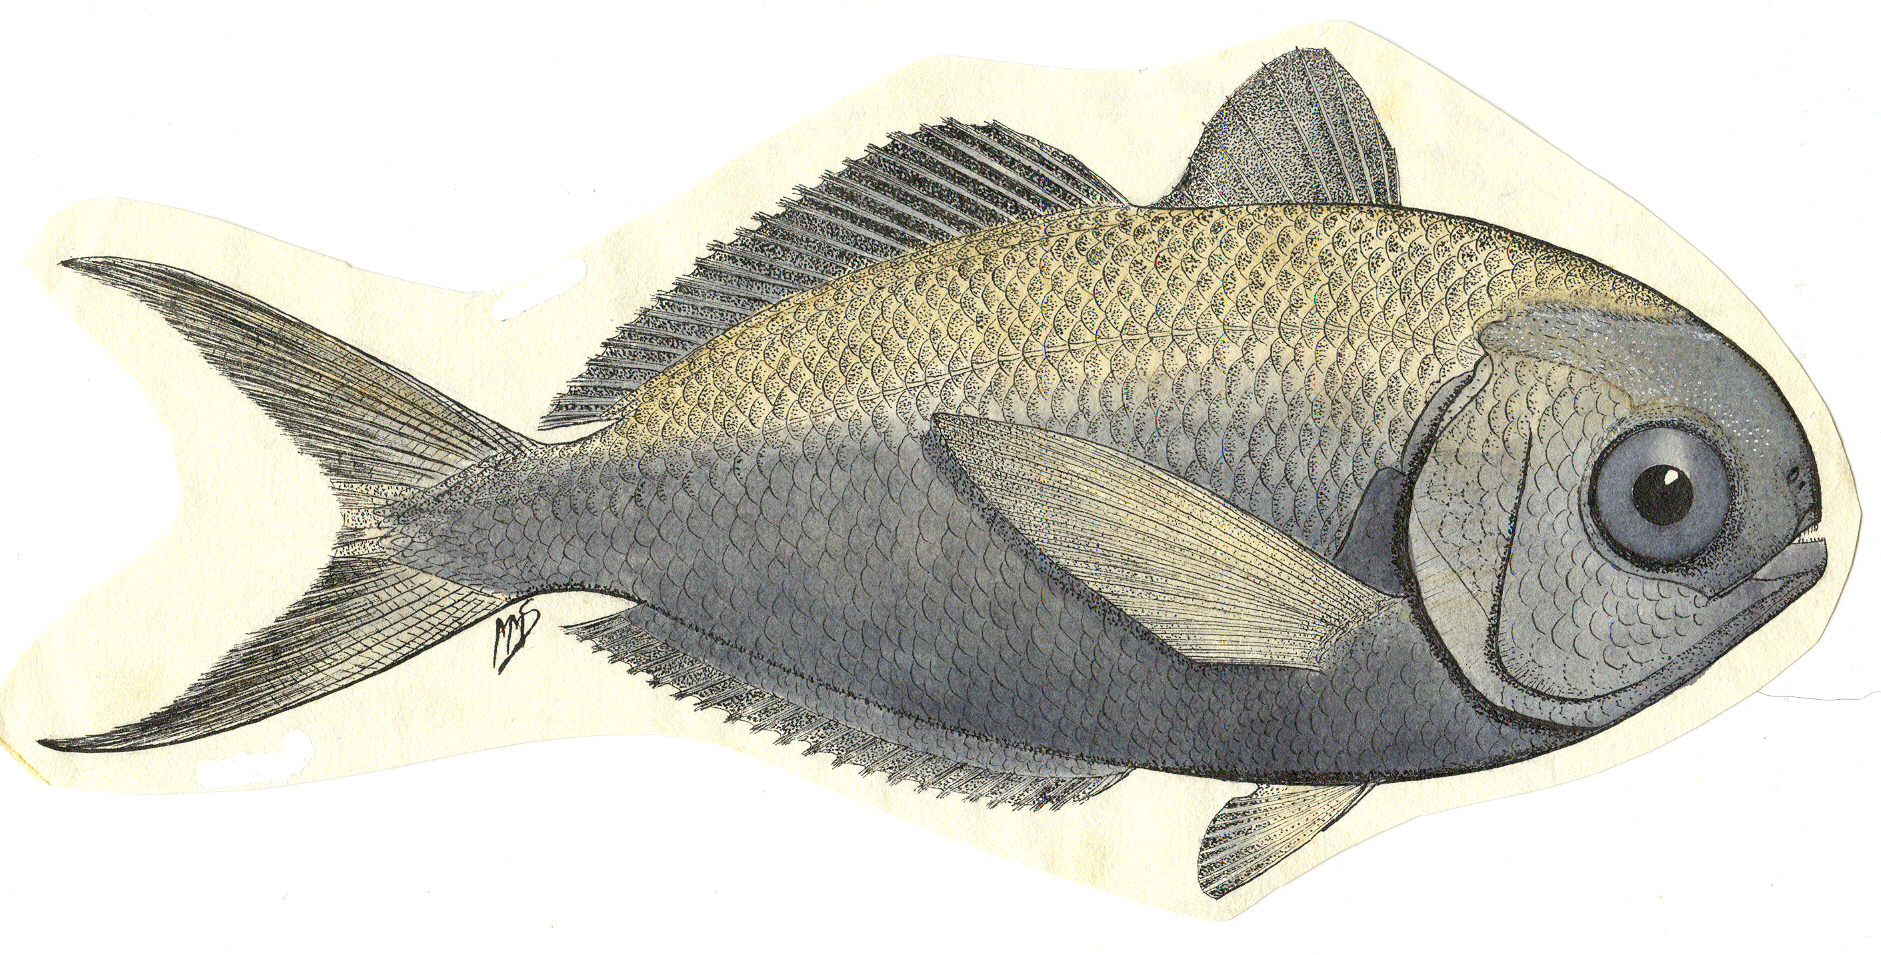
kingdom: Animalia
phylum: Chordata
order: Perciformes
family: Nomeidae
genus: Psenes
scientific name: Psenes cyanophrys
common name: Freckled driftfish
